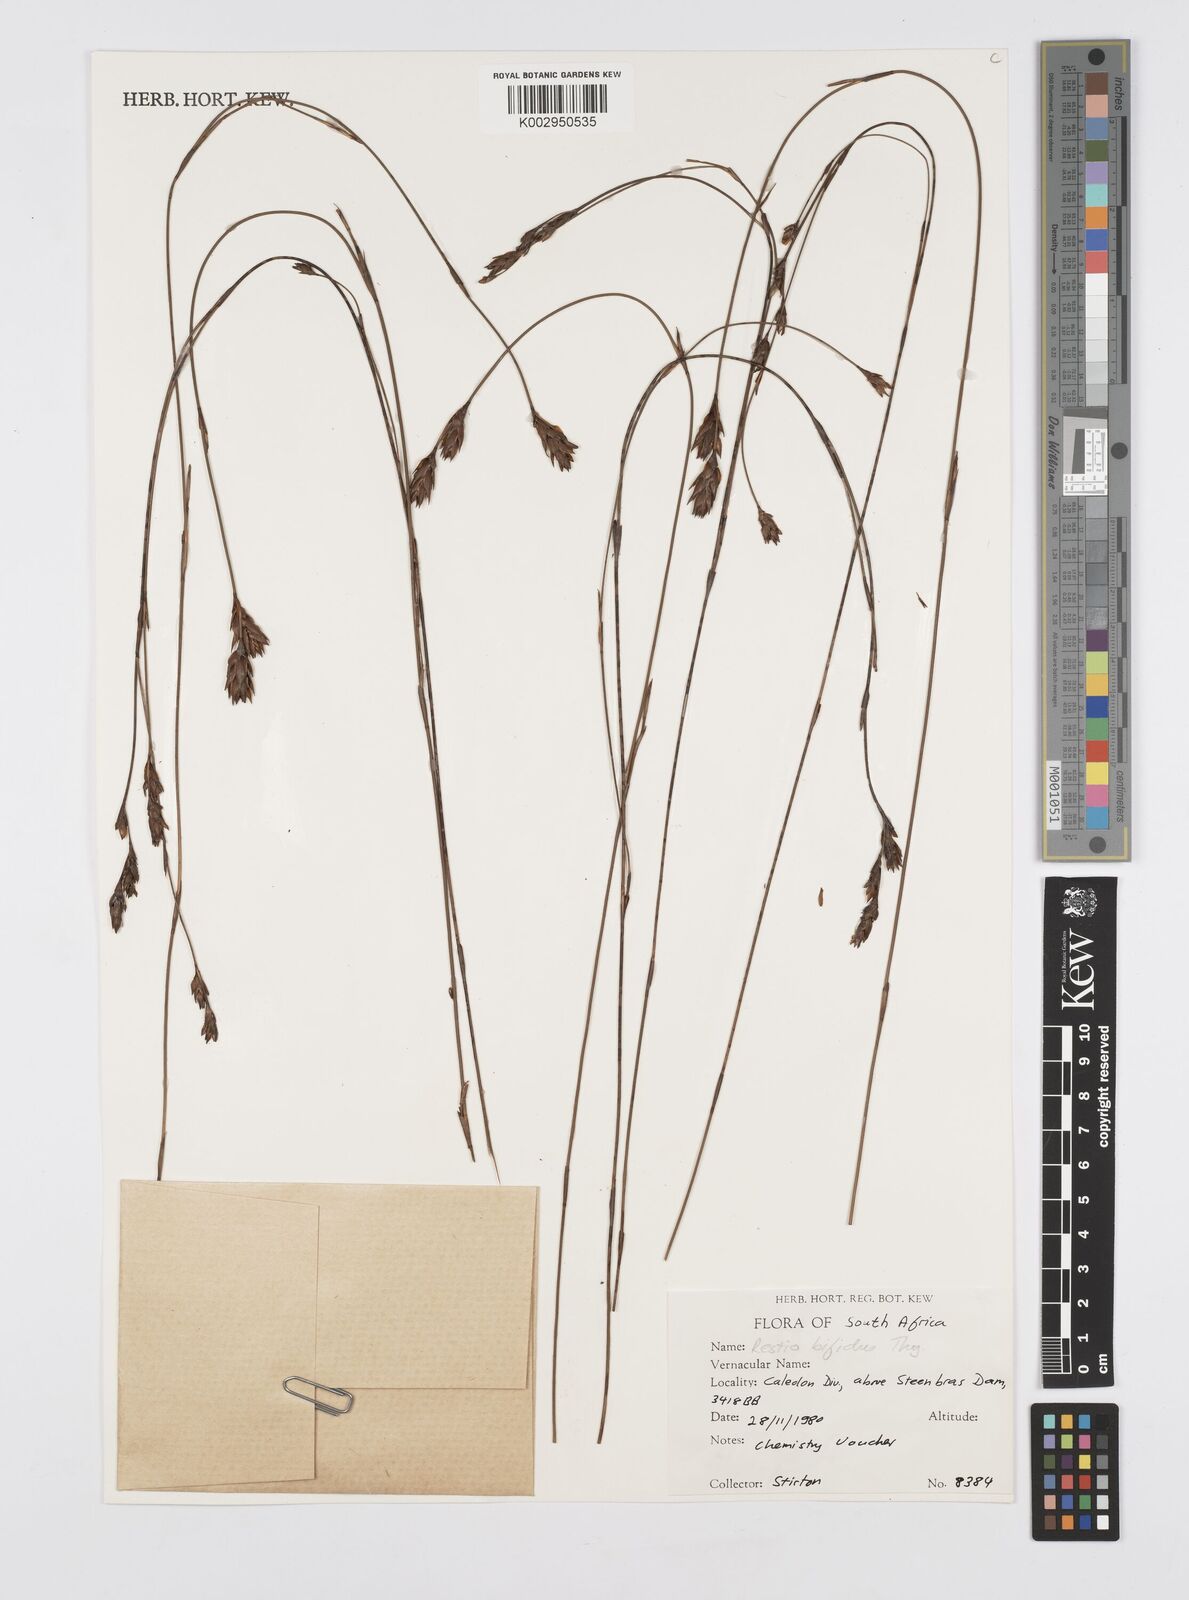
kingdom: Plantae
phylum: Tracheophyta
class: Liliopsida
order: Poales
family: Restionaceae
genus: Restio
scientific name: Restio bifidus
